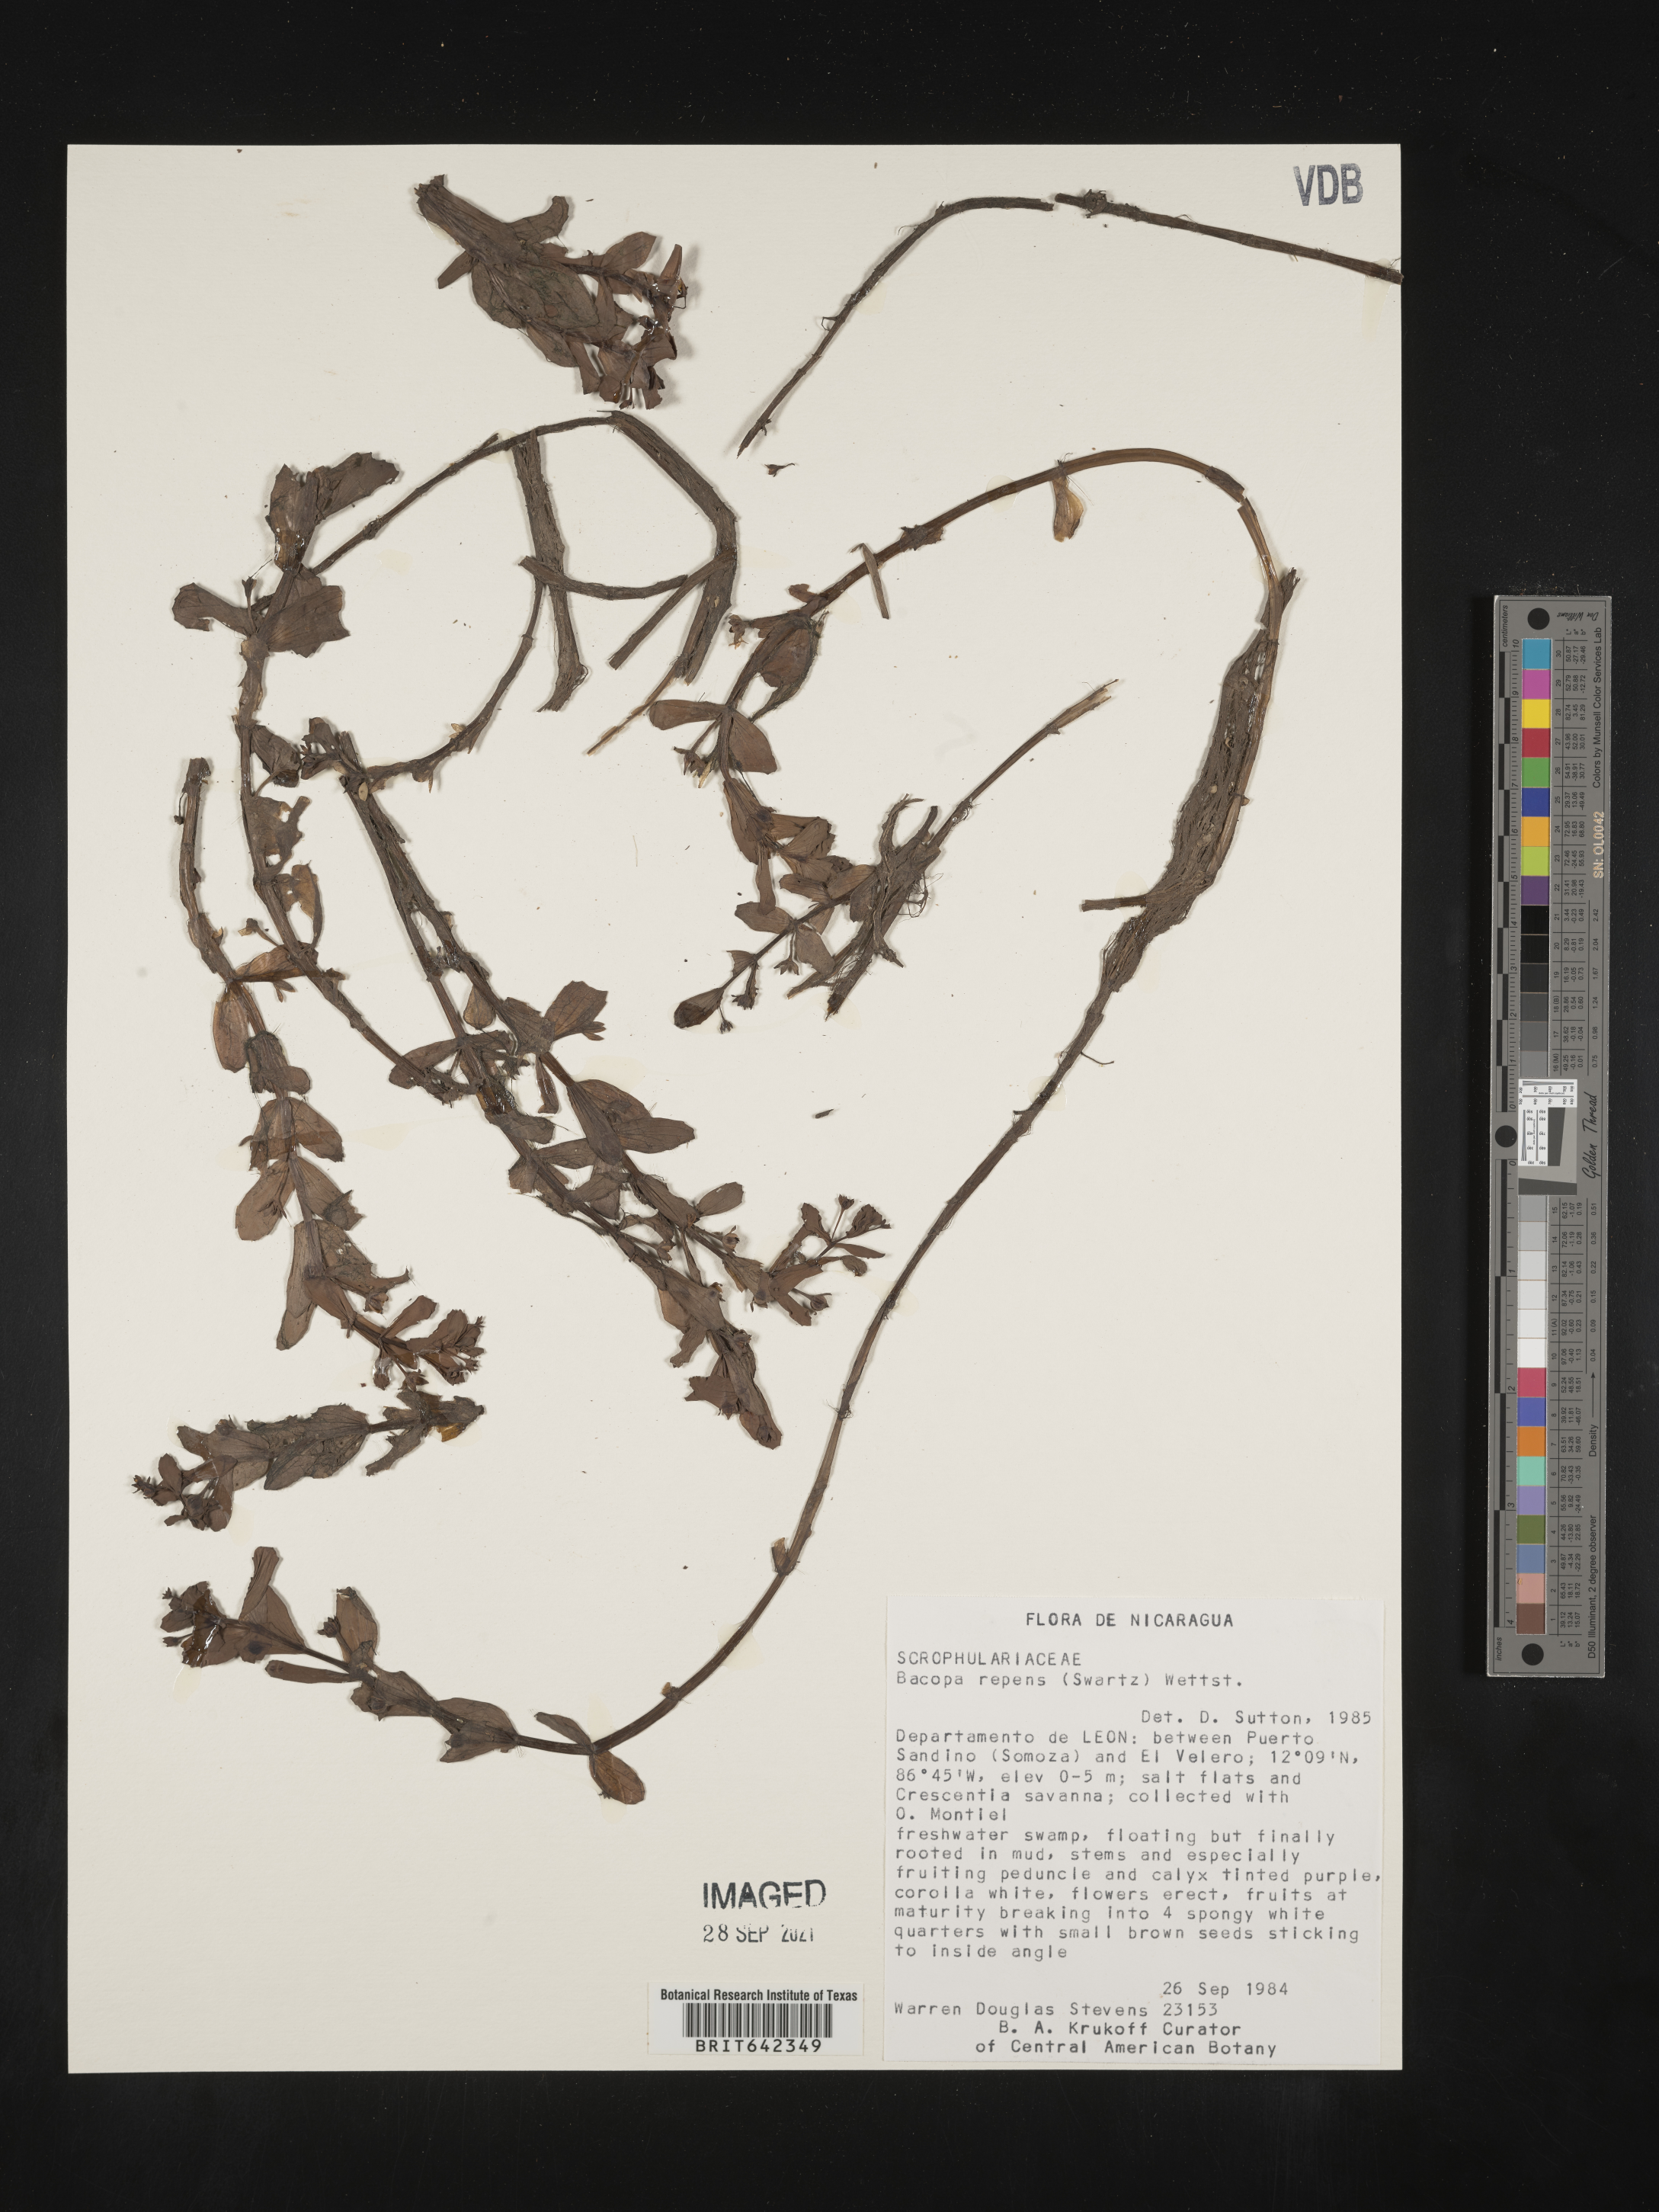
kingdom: Plantae
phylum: Tracheophyta
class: Magnoliopsida
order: Lamiales
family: Plantaginaceae
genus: Bacopa
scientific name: Bacopa
